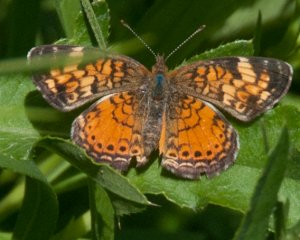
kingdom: Animalia
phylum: Arthropoda
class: Insecta
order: Lepidoptera
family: Nymphalidae
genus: Phyciodes
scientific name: Phyciodes tharos
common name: Northern Crescent
